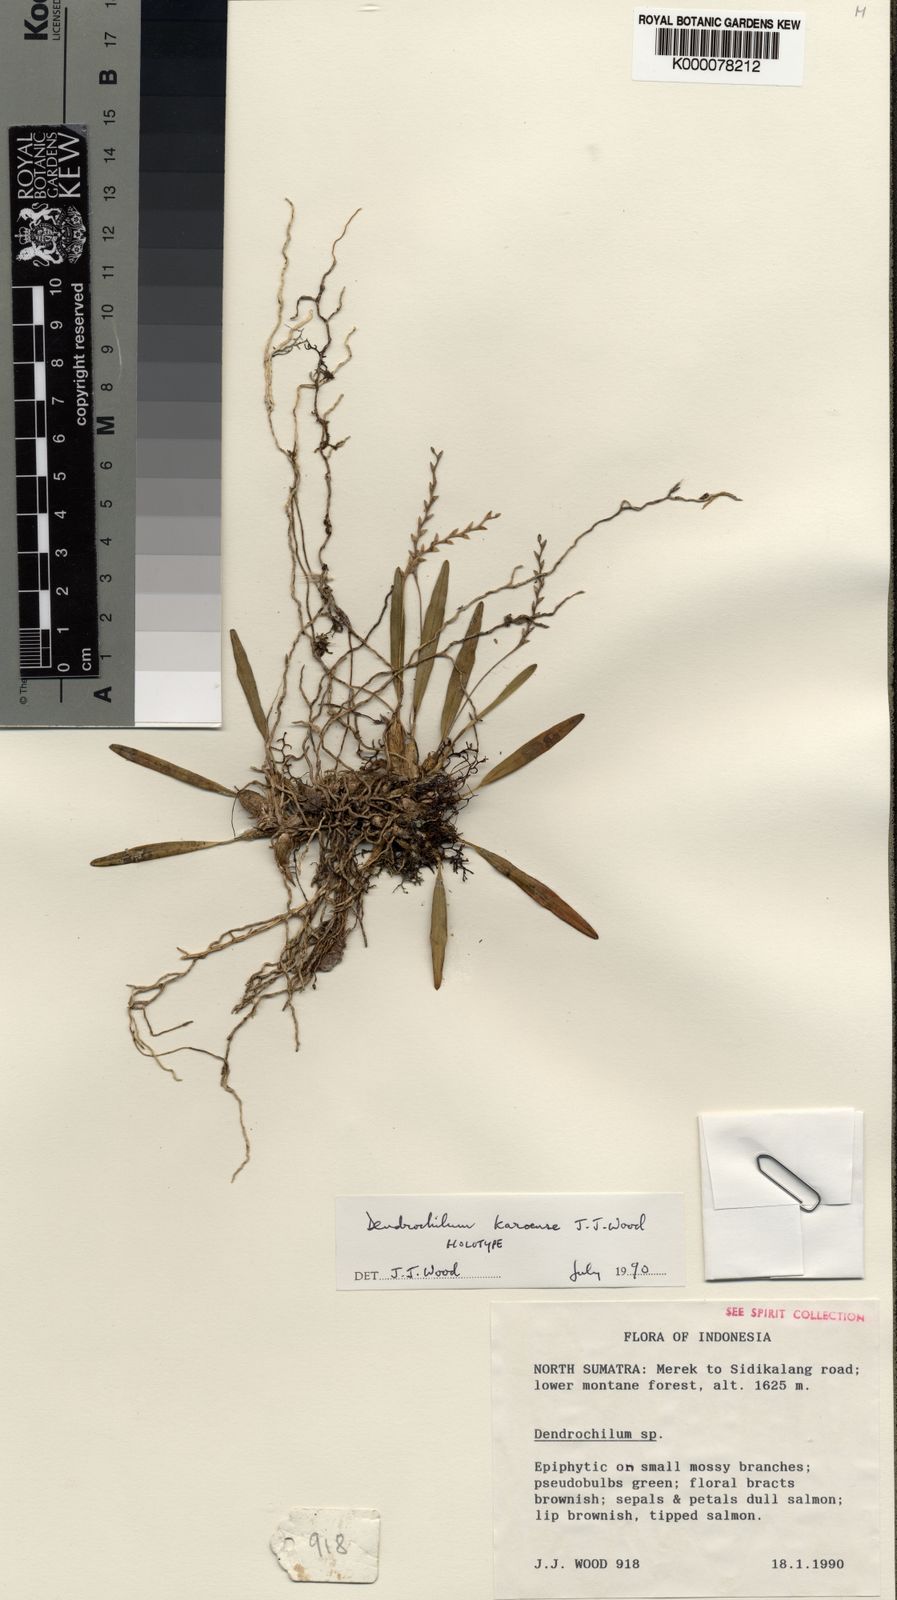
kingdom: Plantae
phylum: Tracheophyta
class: Liliopsida
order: Asparagales
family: Orchidaceae
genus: Coelogyne
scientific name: Coelogyne karoensis
